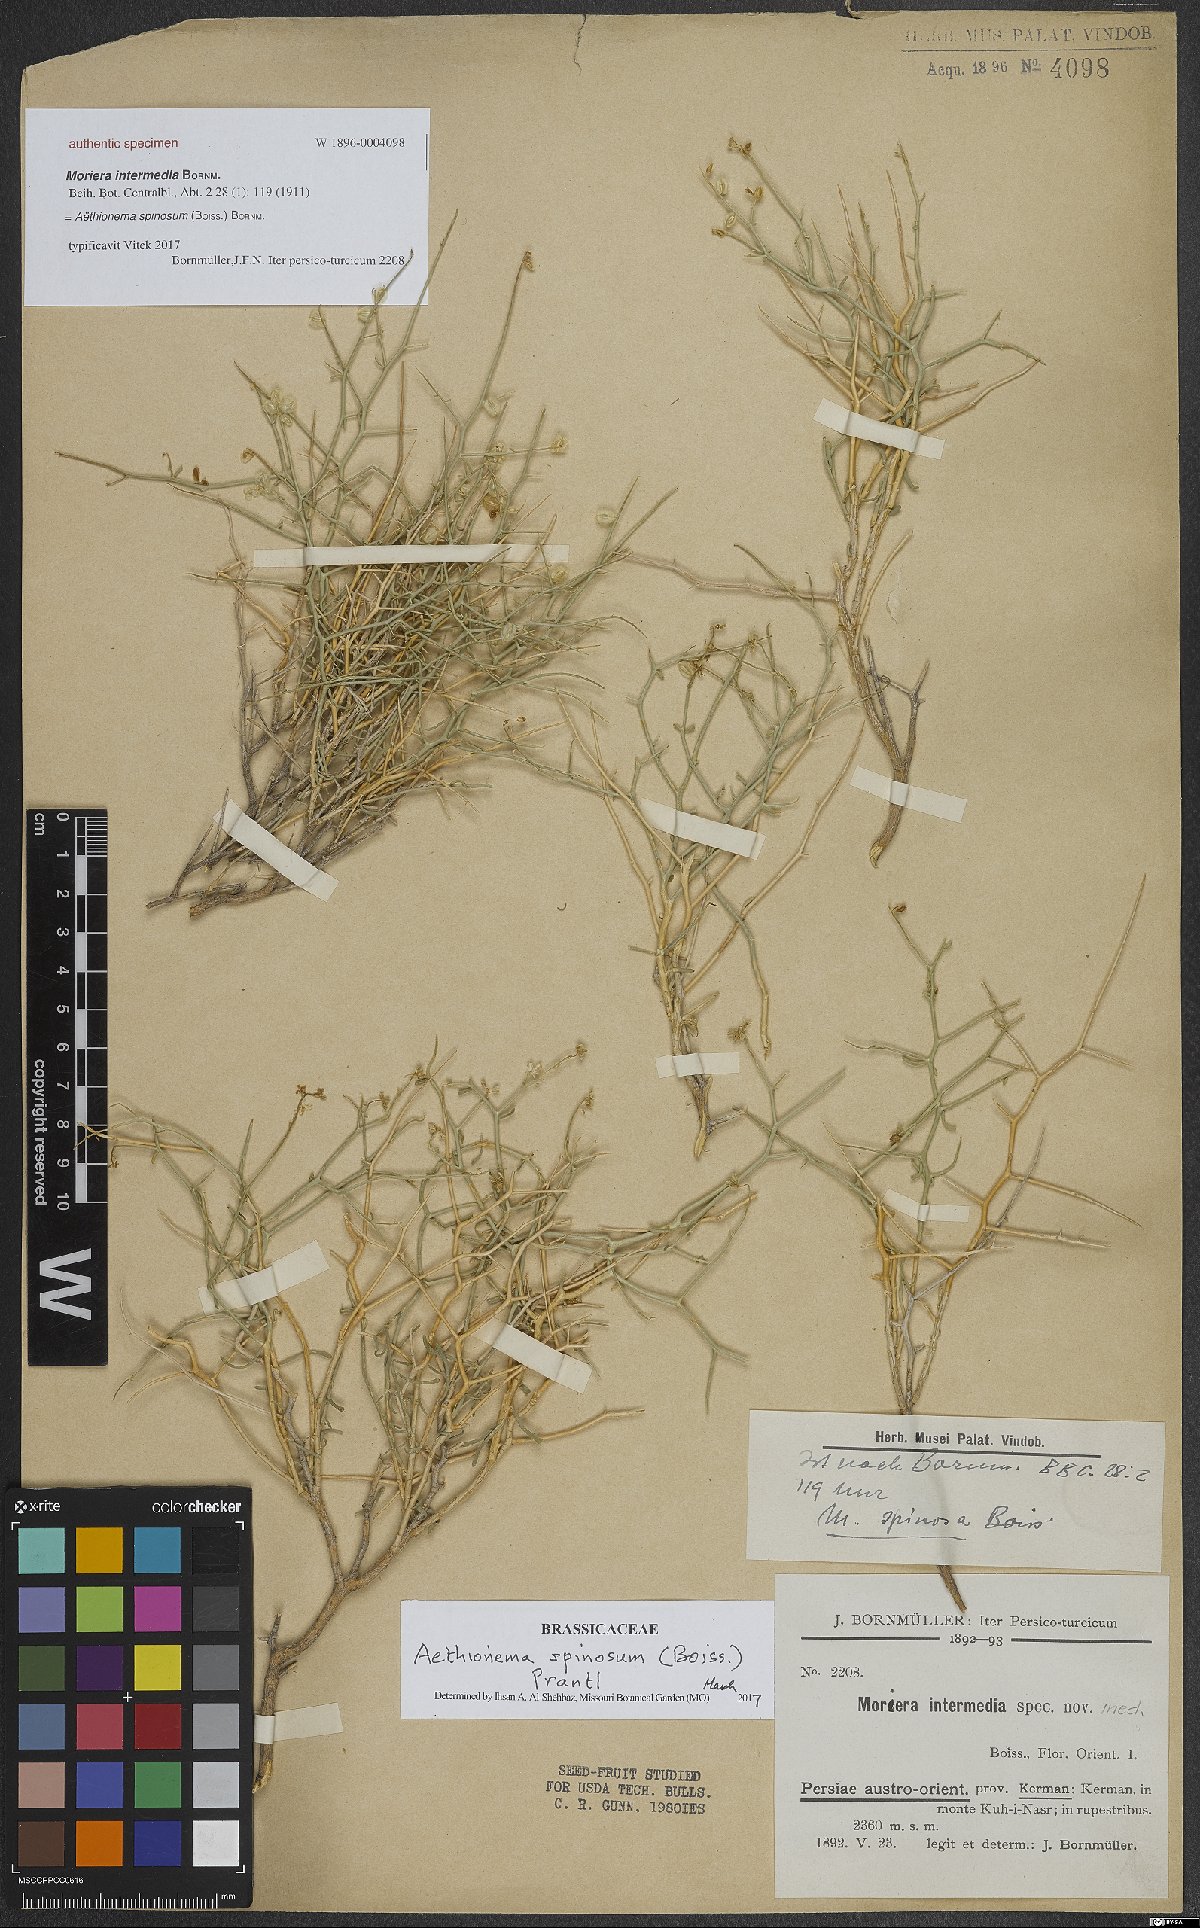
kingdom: Plantae
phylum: Tracheophyta
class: Magnoliopsida
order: Brassicales
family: Brassicaceae
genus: Aethionema
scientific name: Aethionema virgatum
